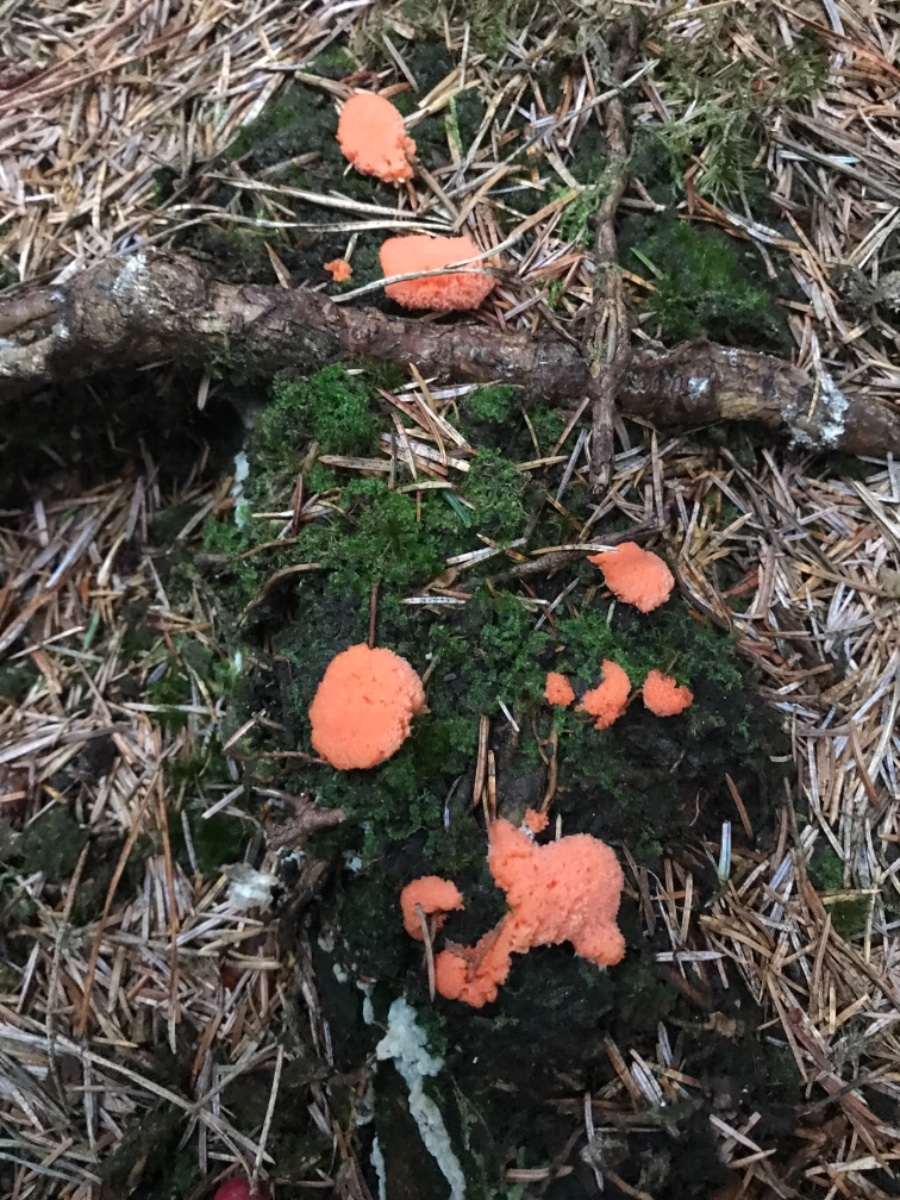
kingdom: Protozoa
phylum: Mycetozoa
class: Myxomycetes
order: Cribrariales
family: Tubiferaceae
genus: Tubifera
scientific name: Tubifera ferruginosa
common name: kanel-støvrør
